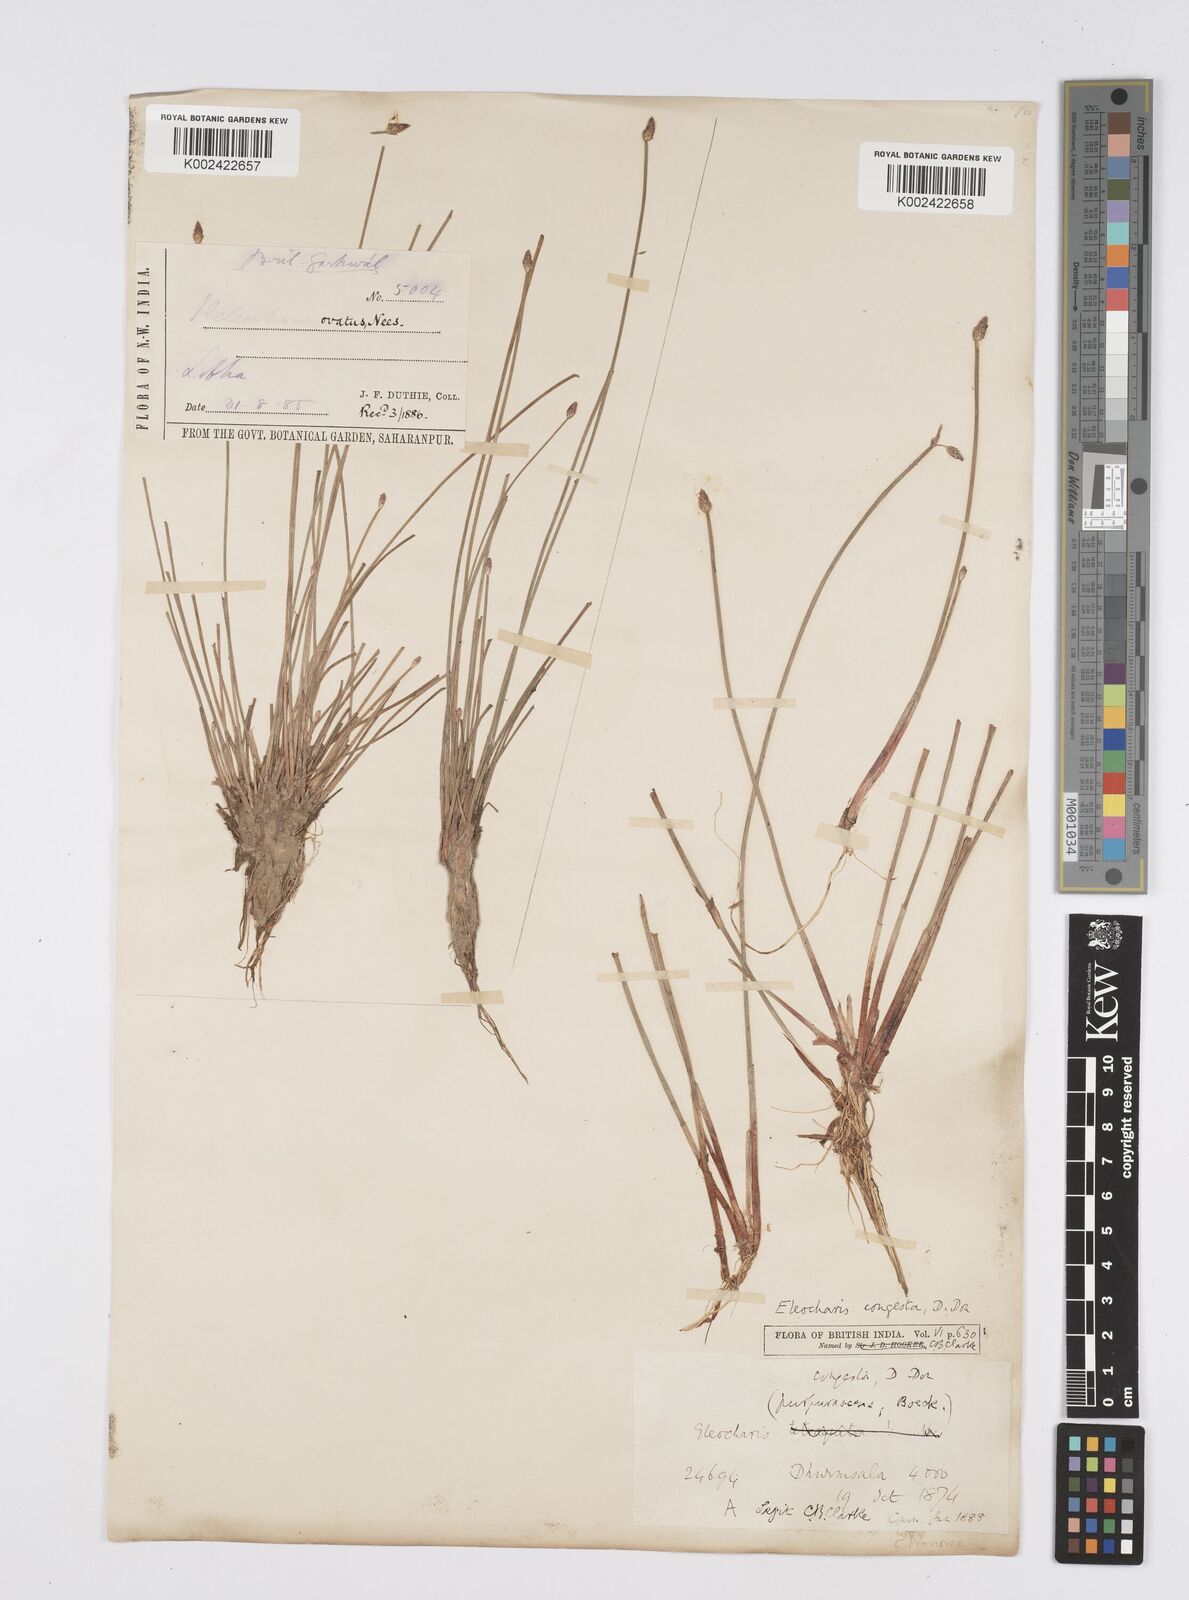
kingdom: Plantae
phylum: Tracheophyta
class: Liliopsida
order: Poales
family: Cyperaceae
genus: Eleocharis
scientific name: Eleocharis congesta
